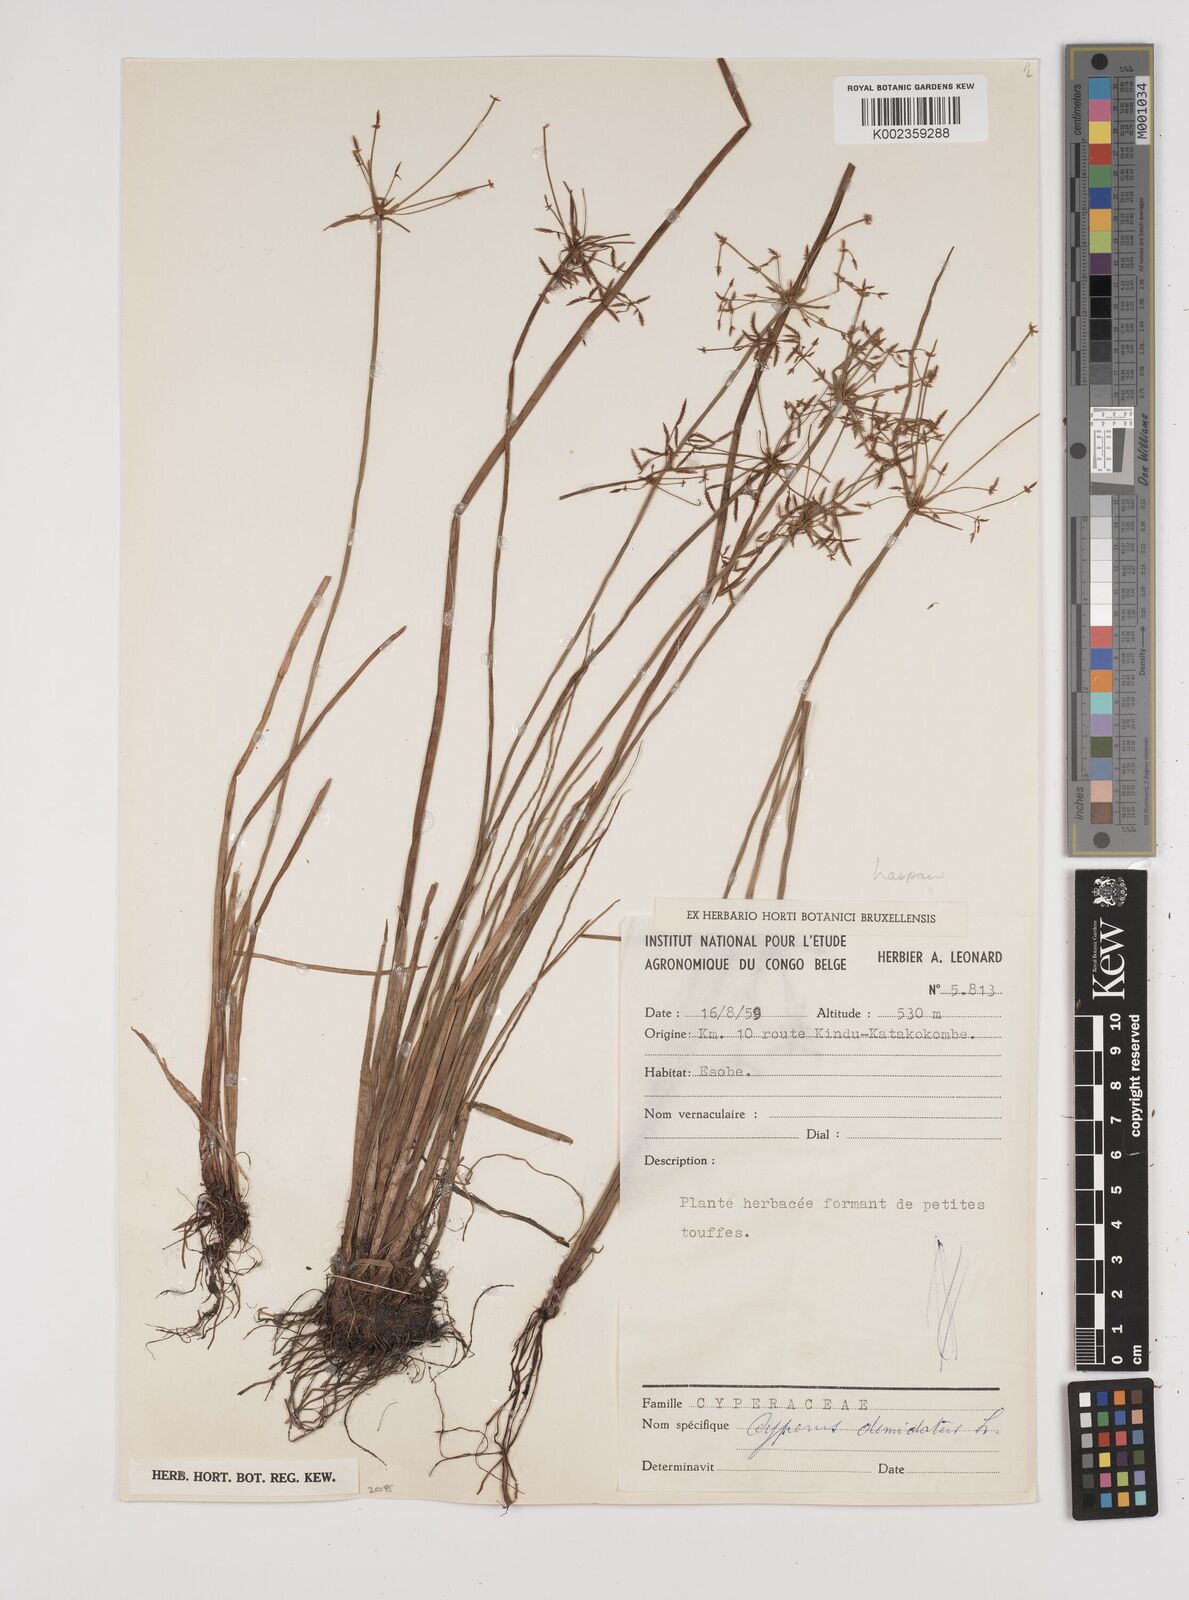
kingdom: Plantae
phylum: Tracheophyta
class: Liliopsida
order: Poales
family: Cyperaceae
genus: Cyperus
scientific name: Cyperus haspan
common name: Haspan flatsedge
